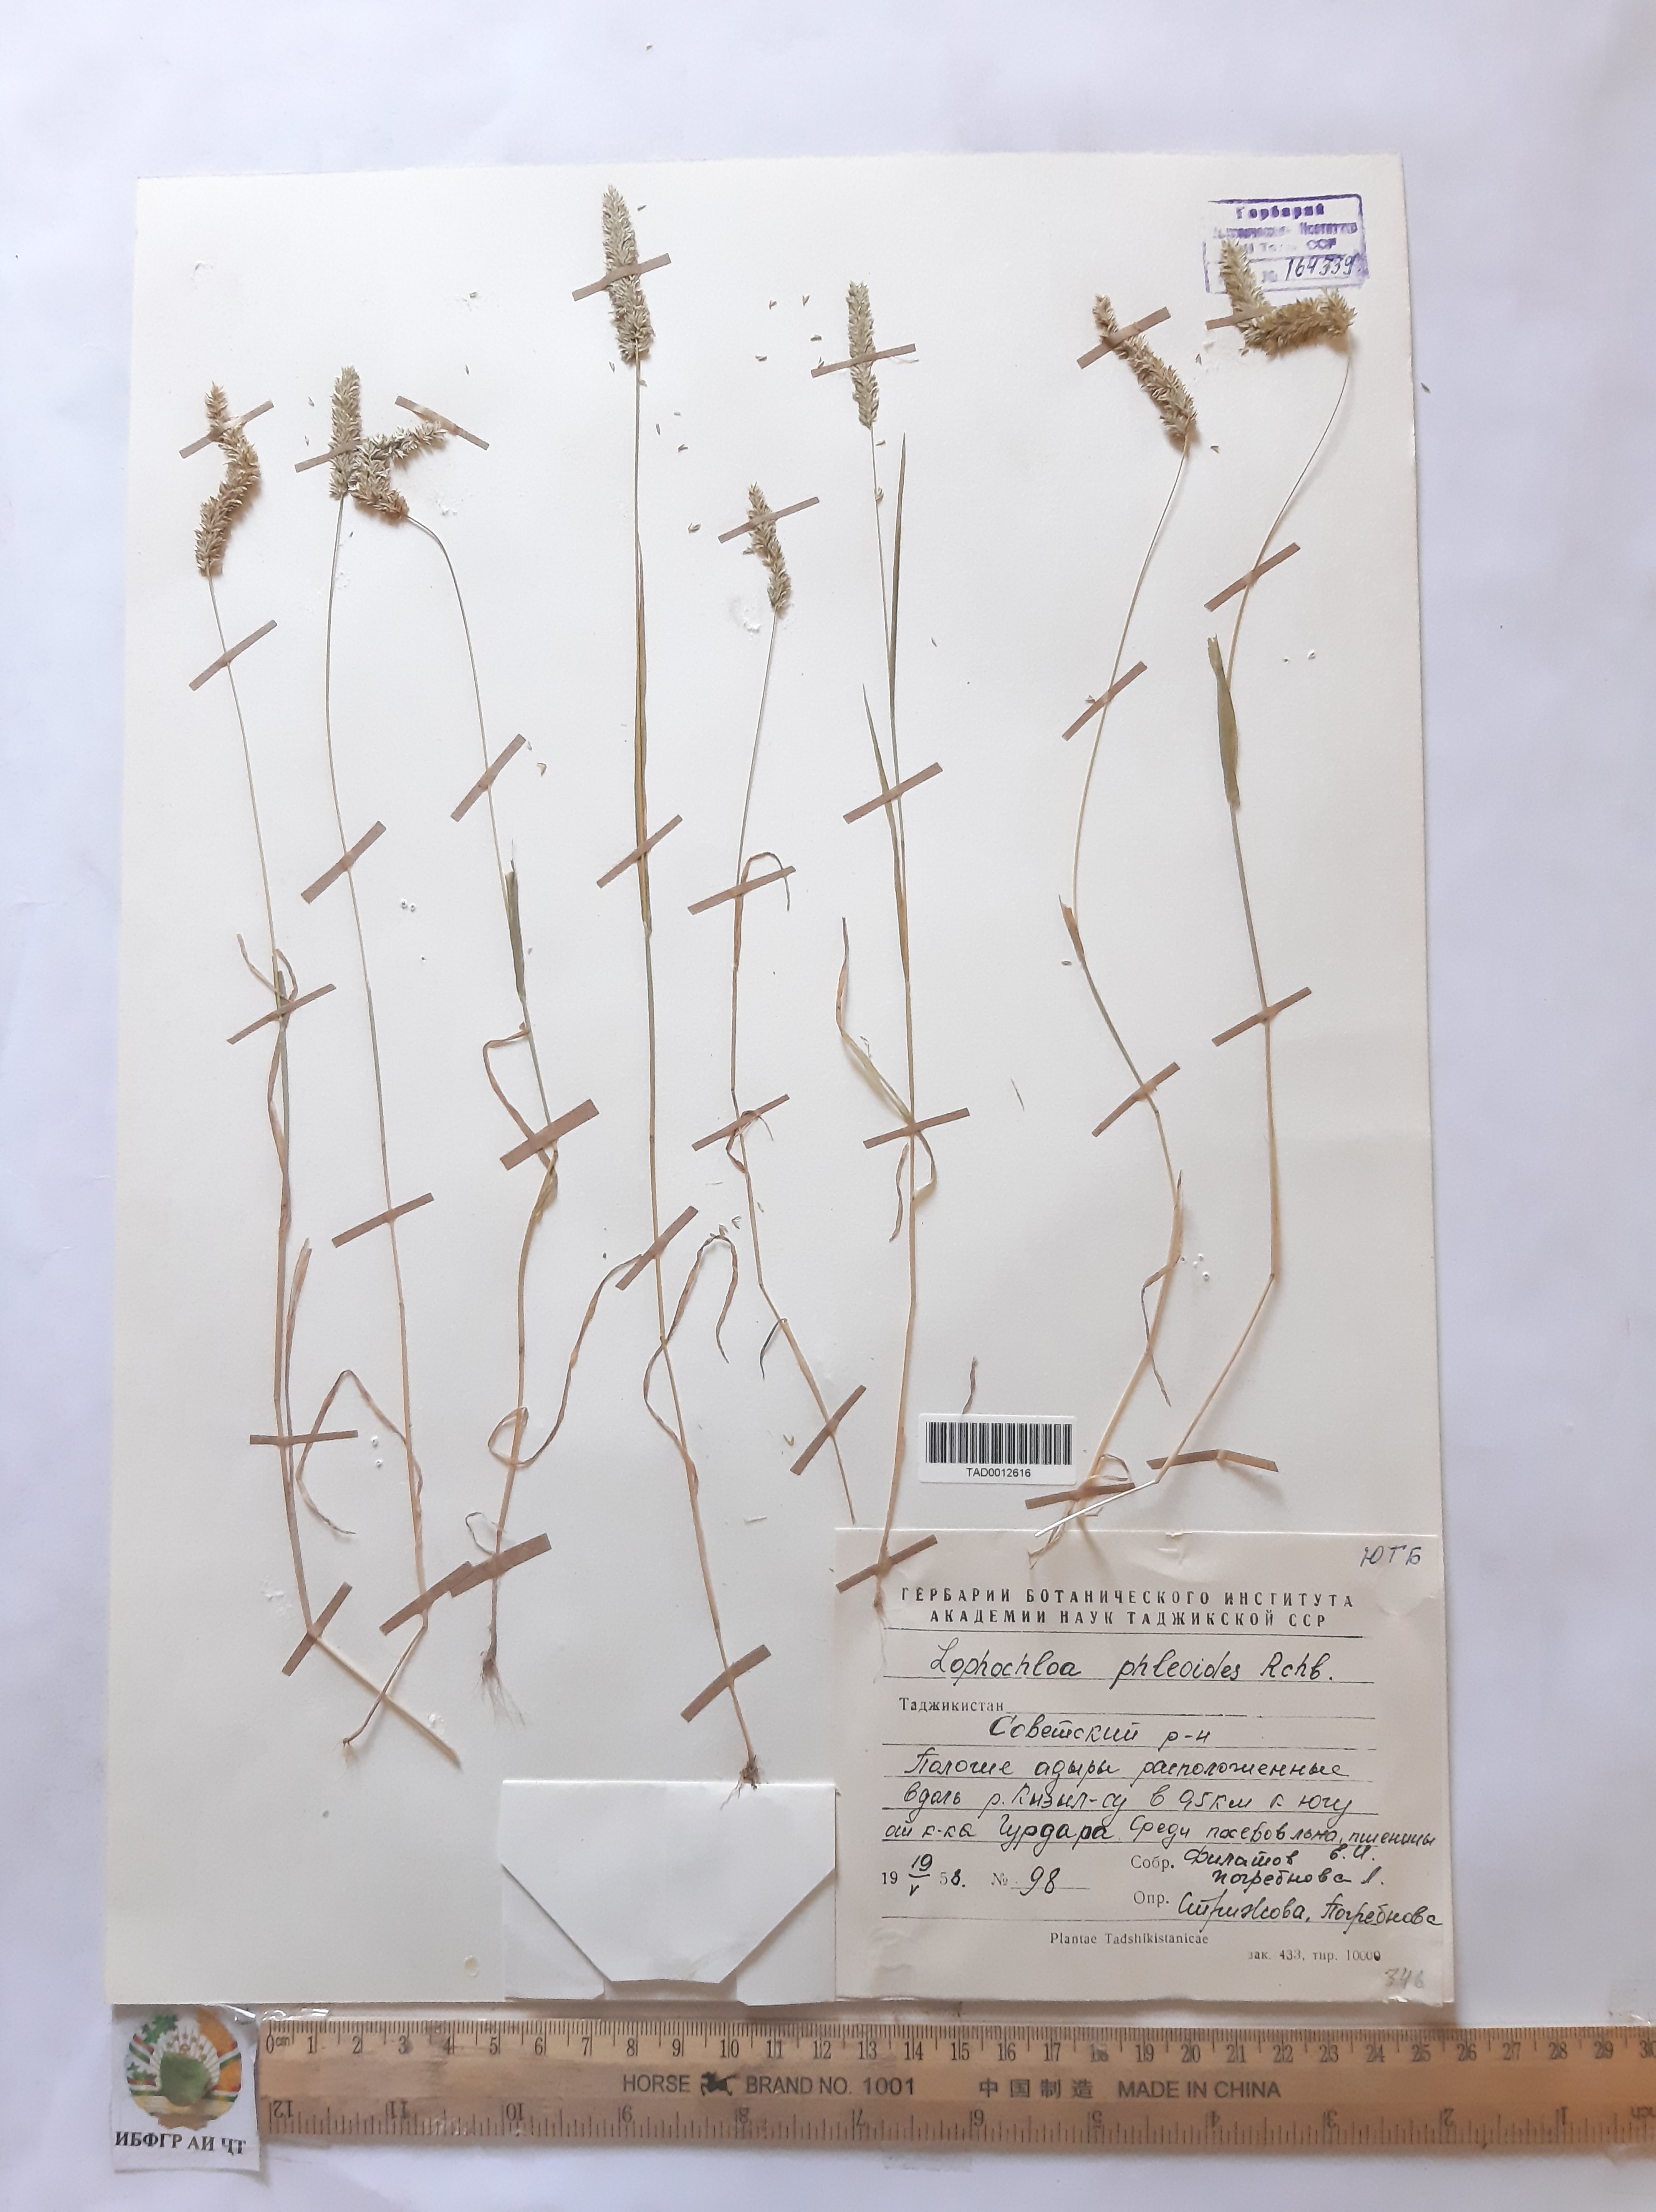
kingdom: Plantae
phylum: Tracheophyta
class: Liliopsida
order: Poales
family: Poaceae
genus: Rostraria
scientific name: Rostraria cristata
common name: Mediterranean hair-grass
